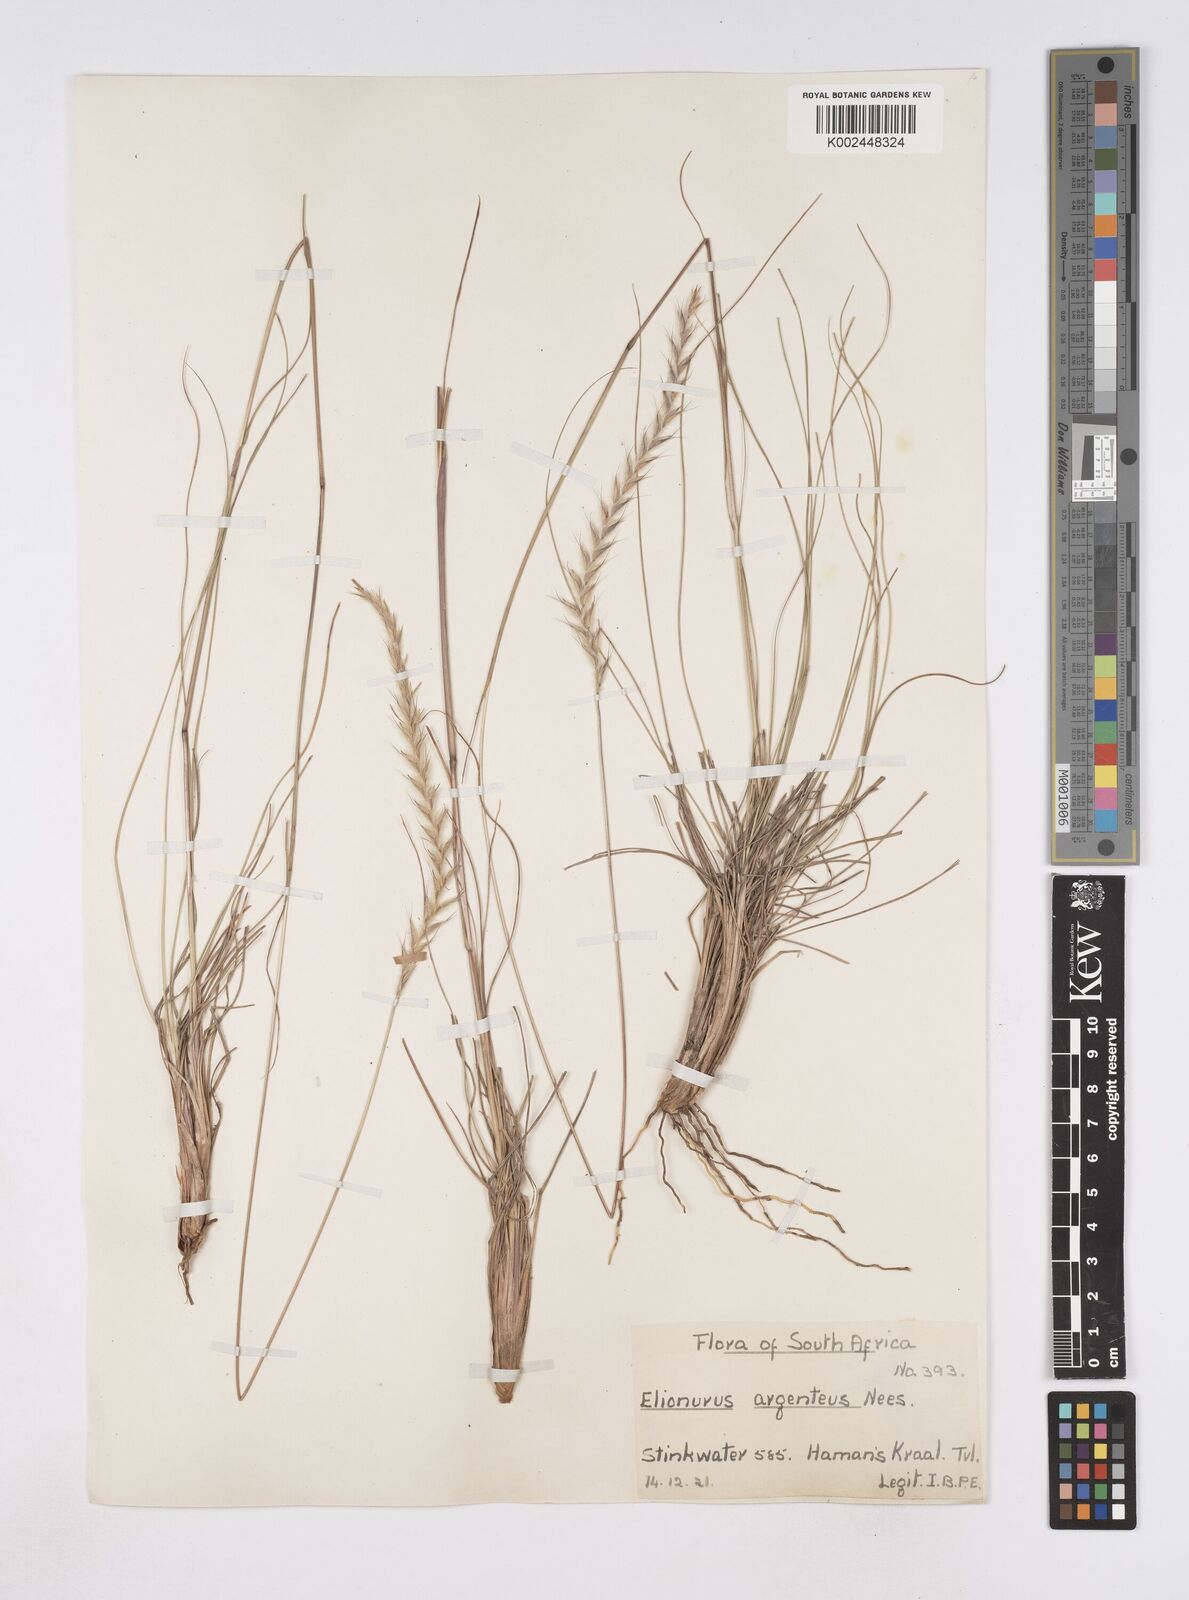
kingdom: Plantae
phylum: Tracheophyta
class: Liliopsida
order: Poales
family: Poaceae
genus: Elionurus
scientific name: Elionurus muticus
